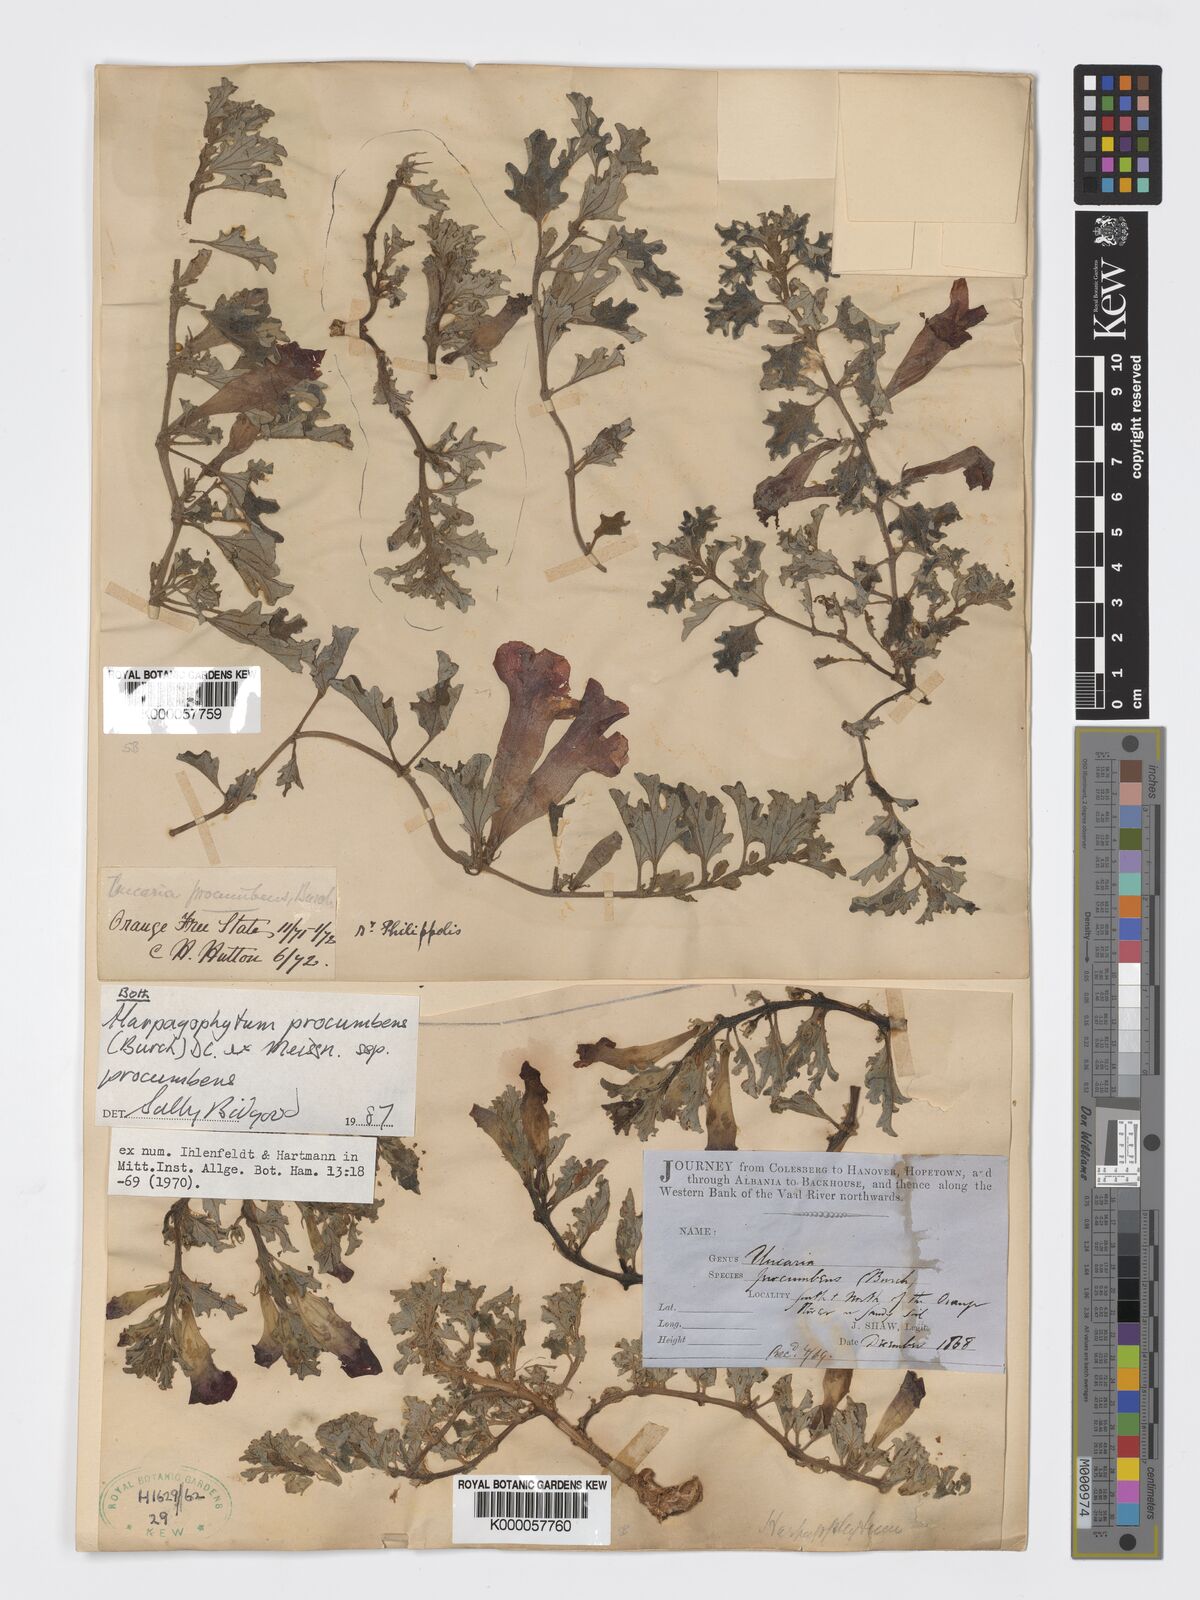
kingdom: Plantae
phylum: Tracheophyta
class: Magnoliopsida
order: Lamiales
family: Pedaliaceae
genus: Harpagophytum
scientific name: Harpagophytum procumbens
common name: Grappleplant
